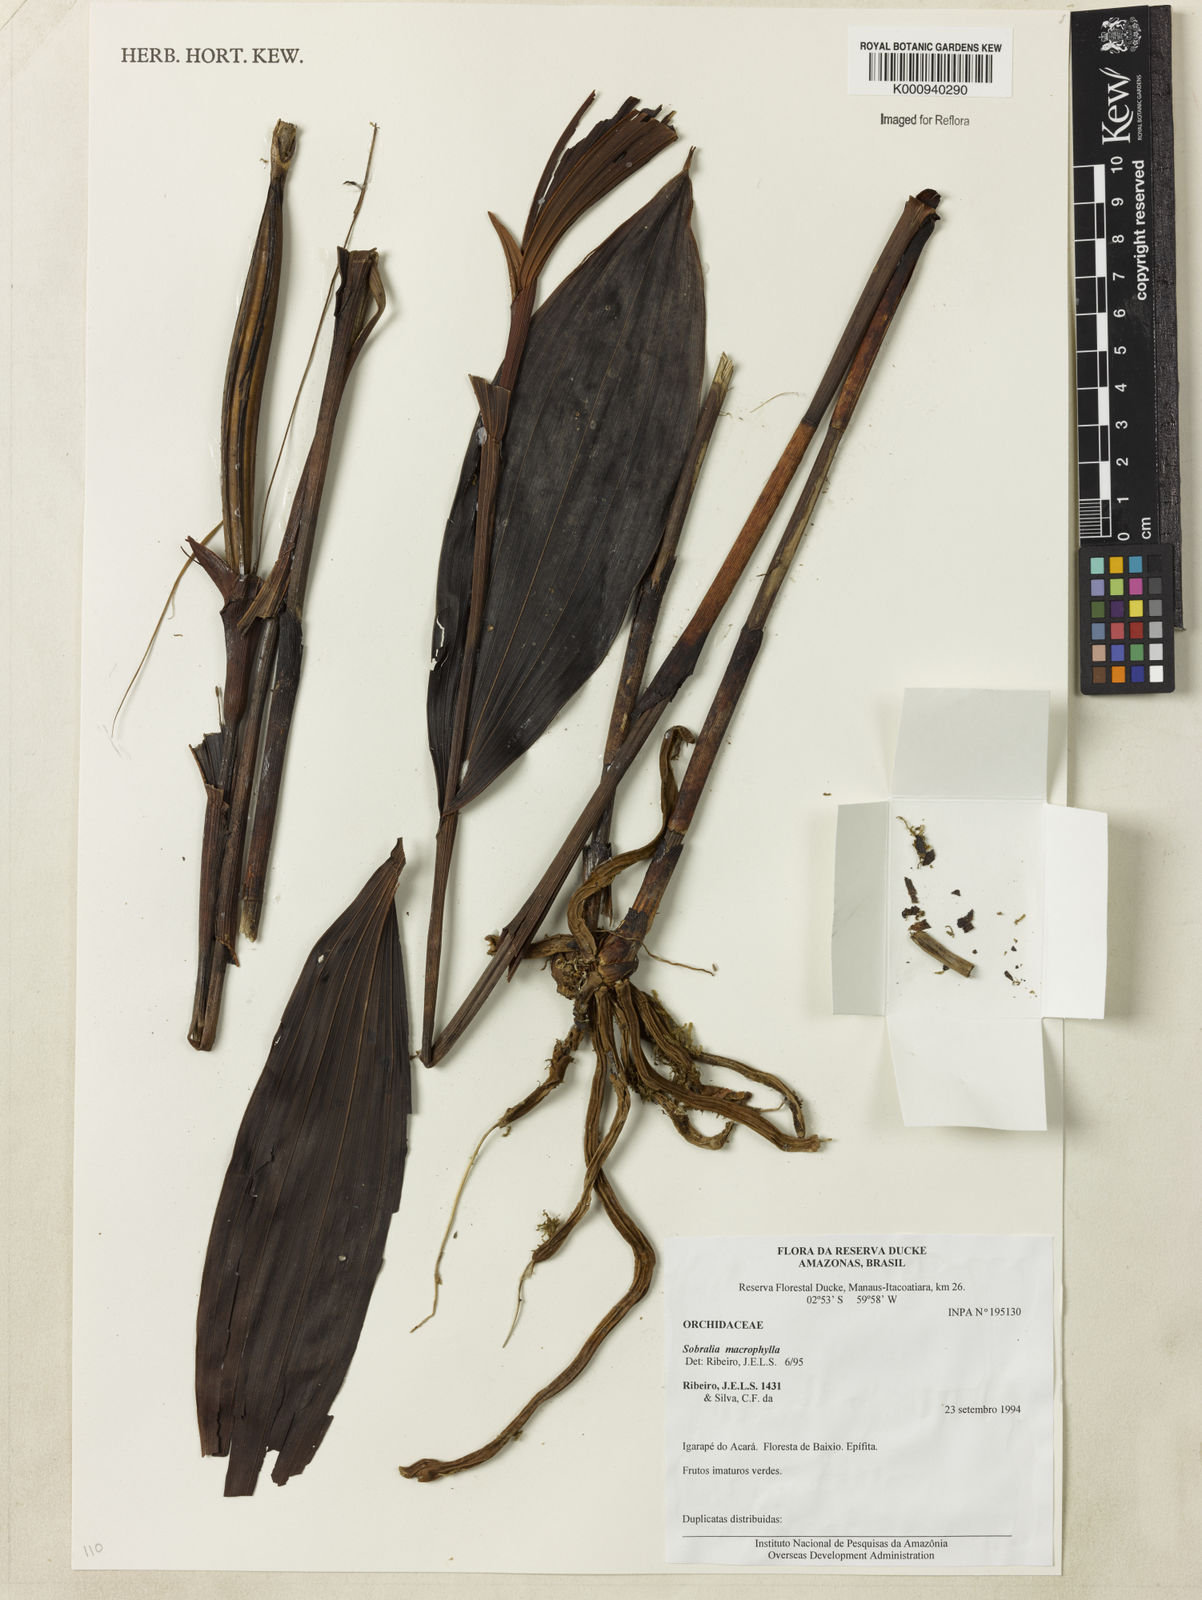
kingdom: Plantae
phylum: Tracheophyta
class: Liliopsida
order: Asparagales
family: Orchidaceae
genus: Sobralia
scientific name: Sobralia macrophylla
